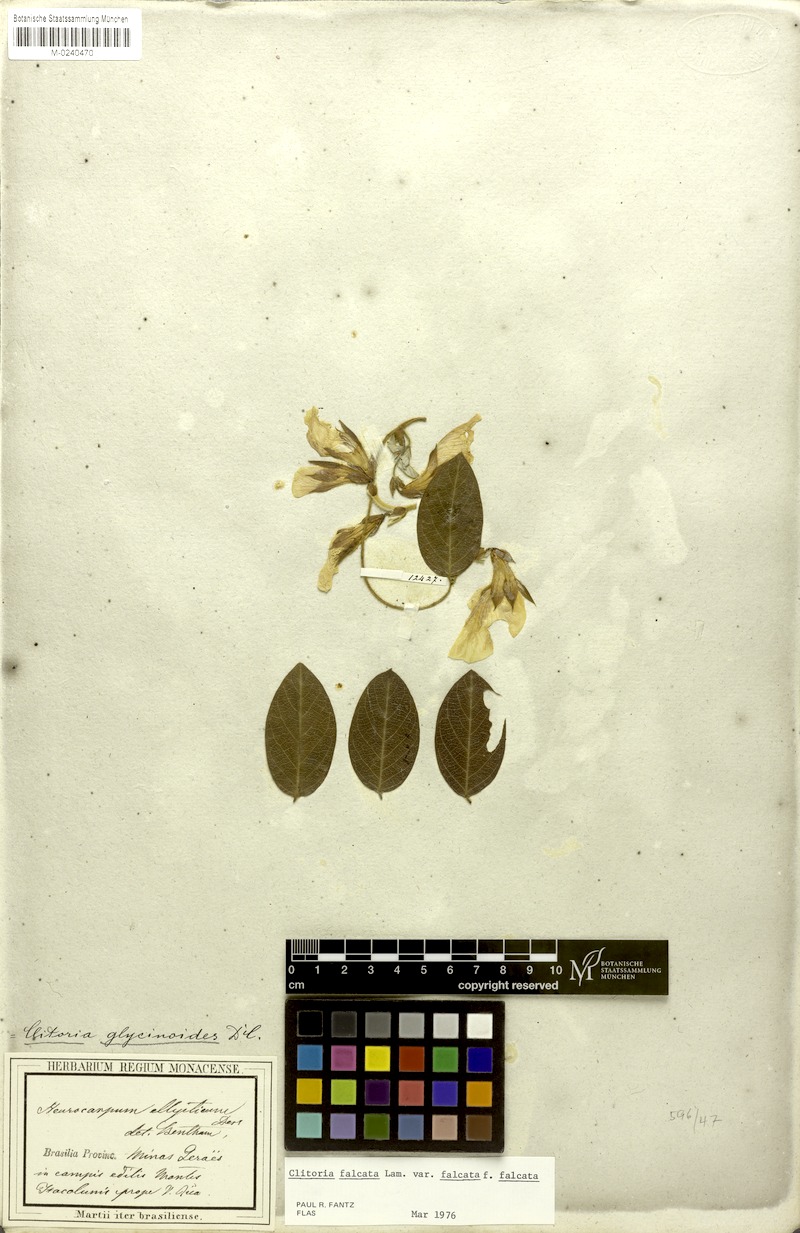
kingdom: Plantae
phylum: Tracheophyta
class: Magnoliopsida
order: Fabales
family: Fabaceae
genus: Clitoria
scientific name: Clitoria falcata
